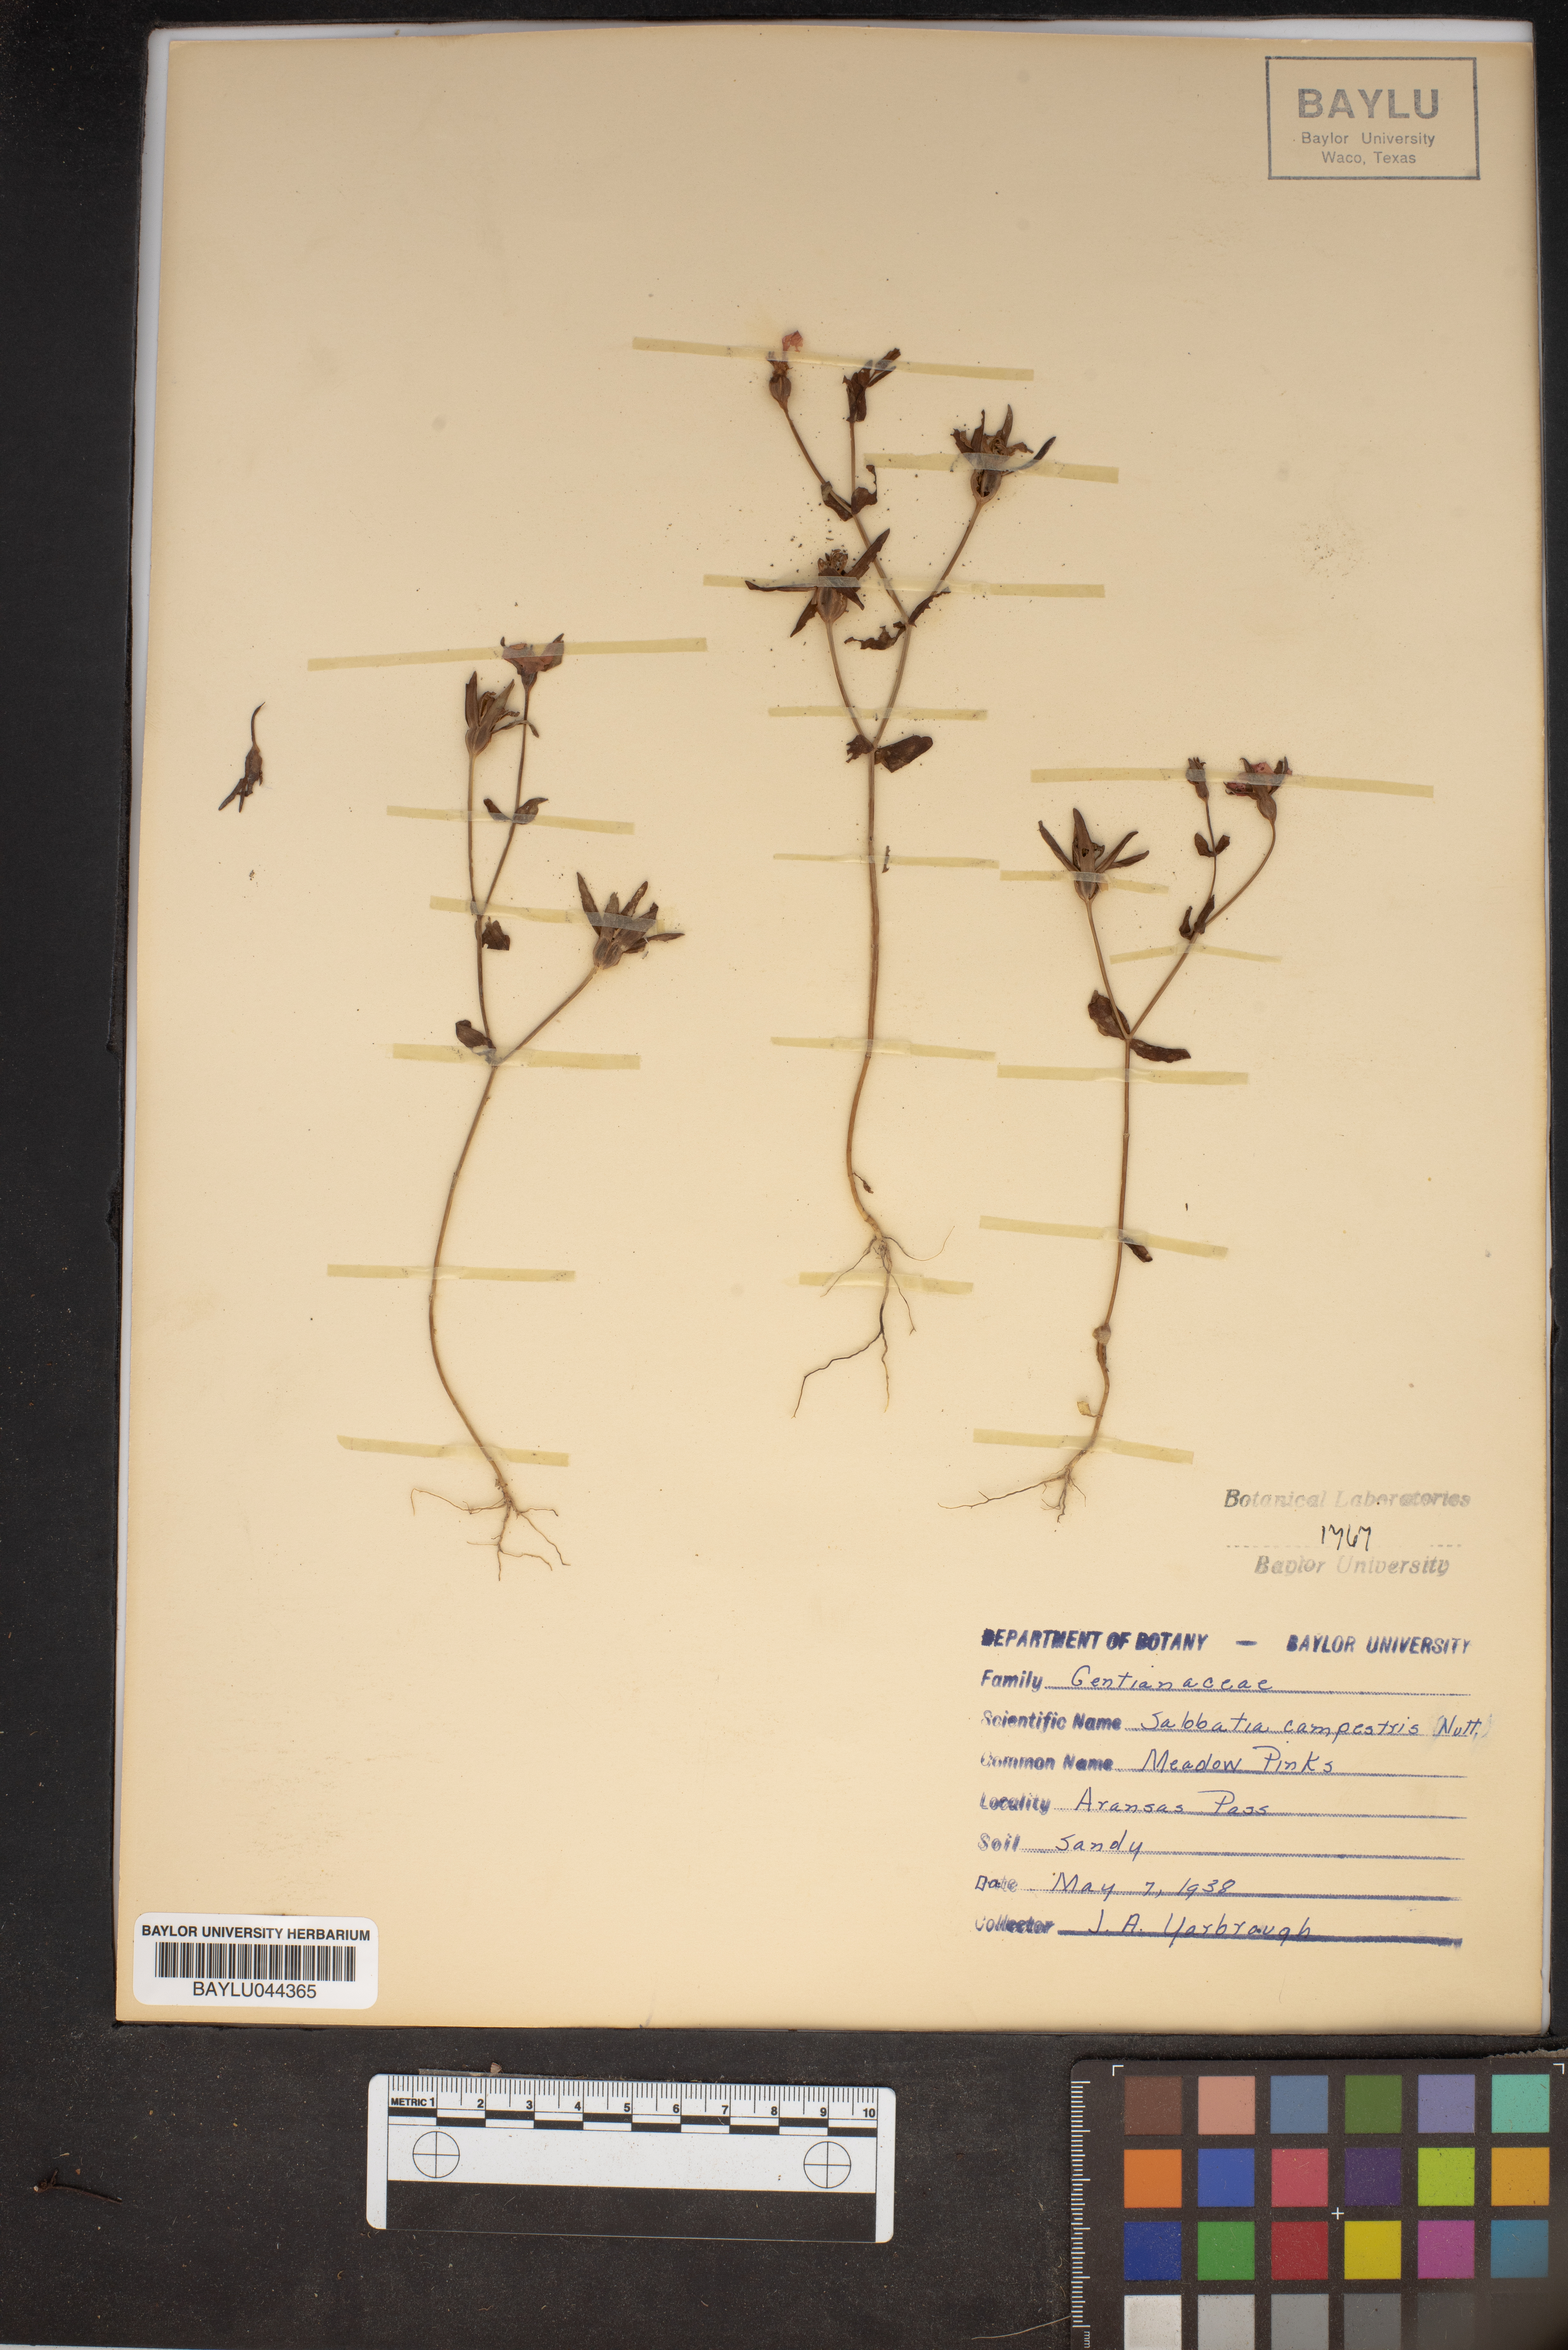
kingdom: Plantae
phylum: Tracheophyta
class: Magnoliopsida
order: Gentianales
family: Gentianaceae
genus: Sabatia
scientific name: Sabatia campestris
